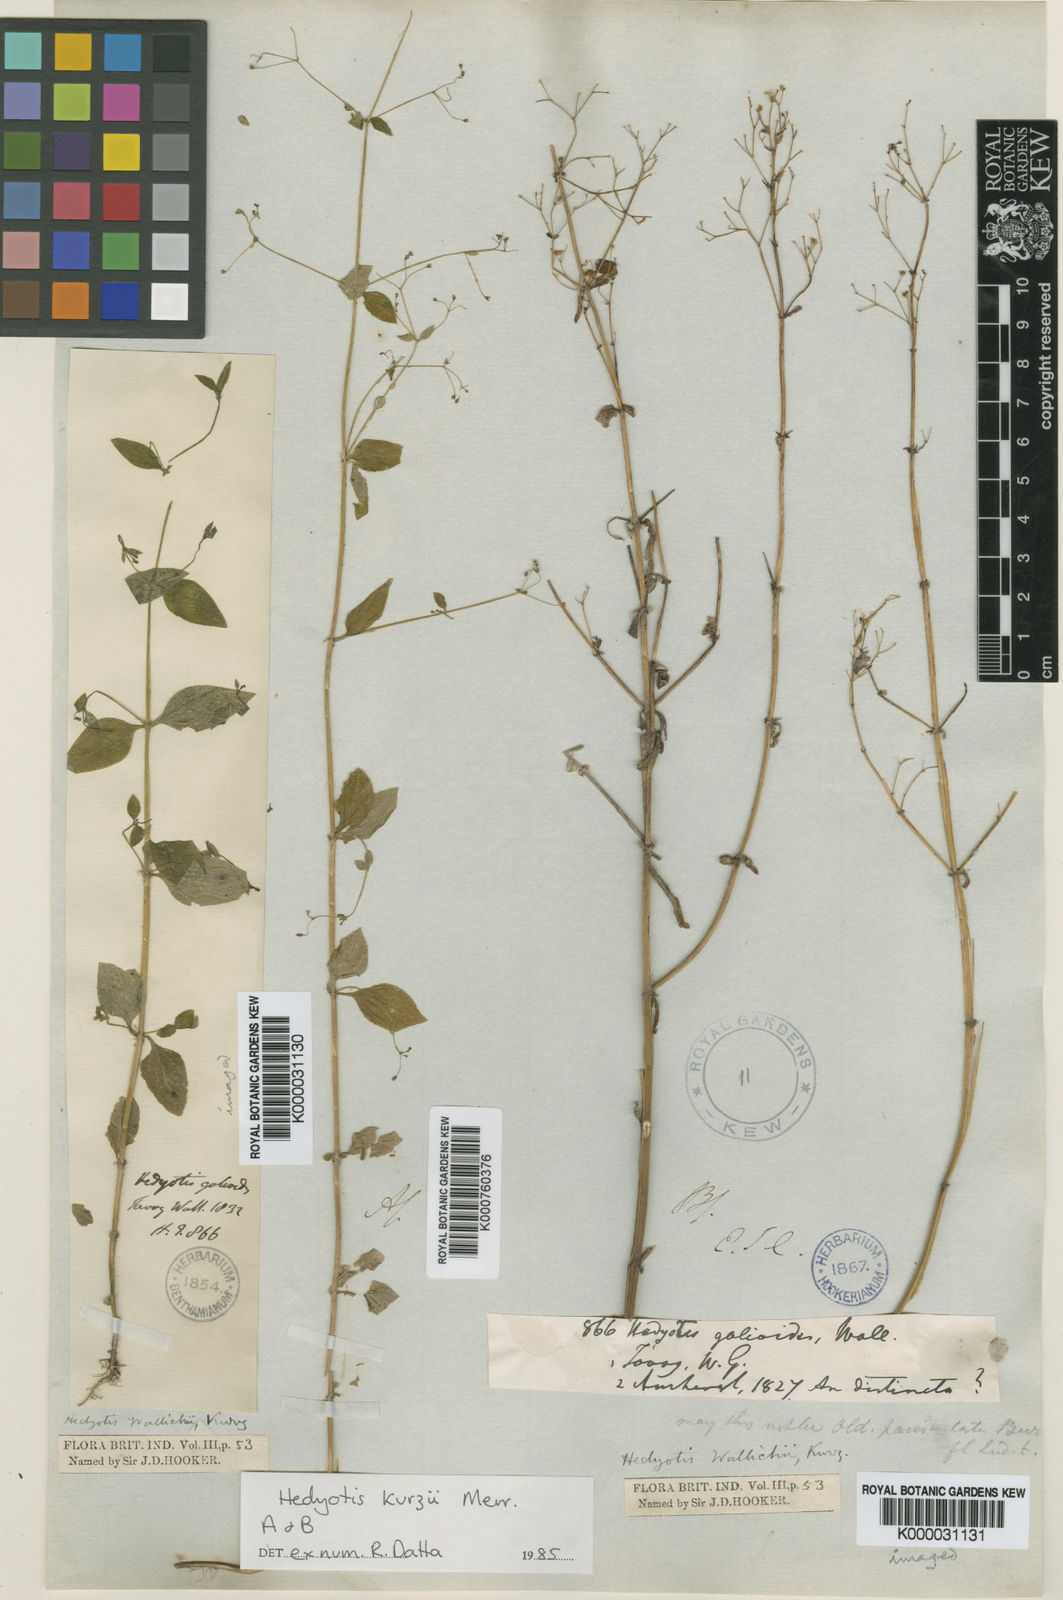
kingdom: Plantae
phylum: Tracheophyta
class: Magnoliopsida
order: Gentianales
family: Rubiaceae
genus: Hedyotis
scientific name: Hedyotis kurzii
